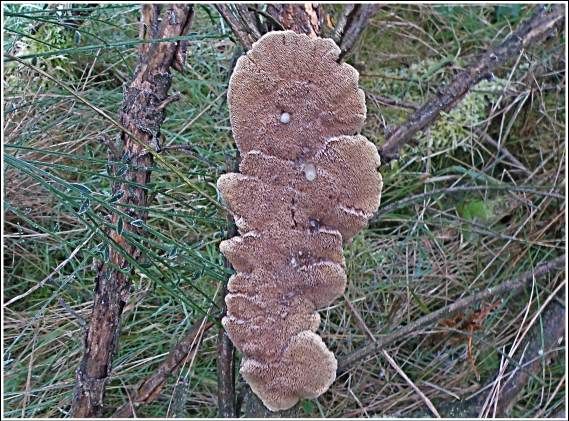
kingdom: Fungi
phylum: Basidiomycota
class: Agaricomycetes
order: Hymenochaetales
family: Hymenochaetaceae
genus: Xanthoporia
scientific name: Xanthoporia radiata
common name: elle-spejlporesvamp
